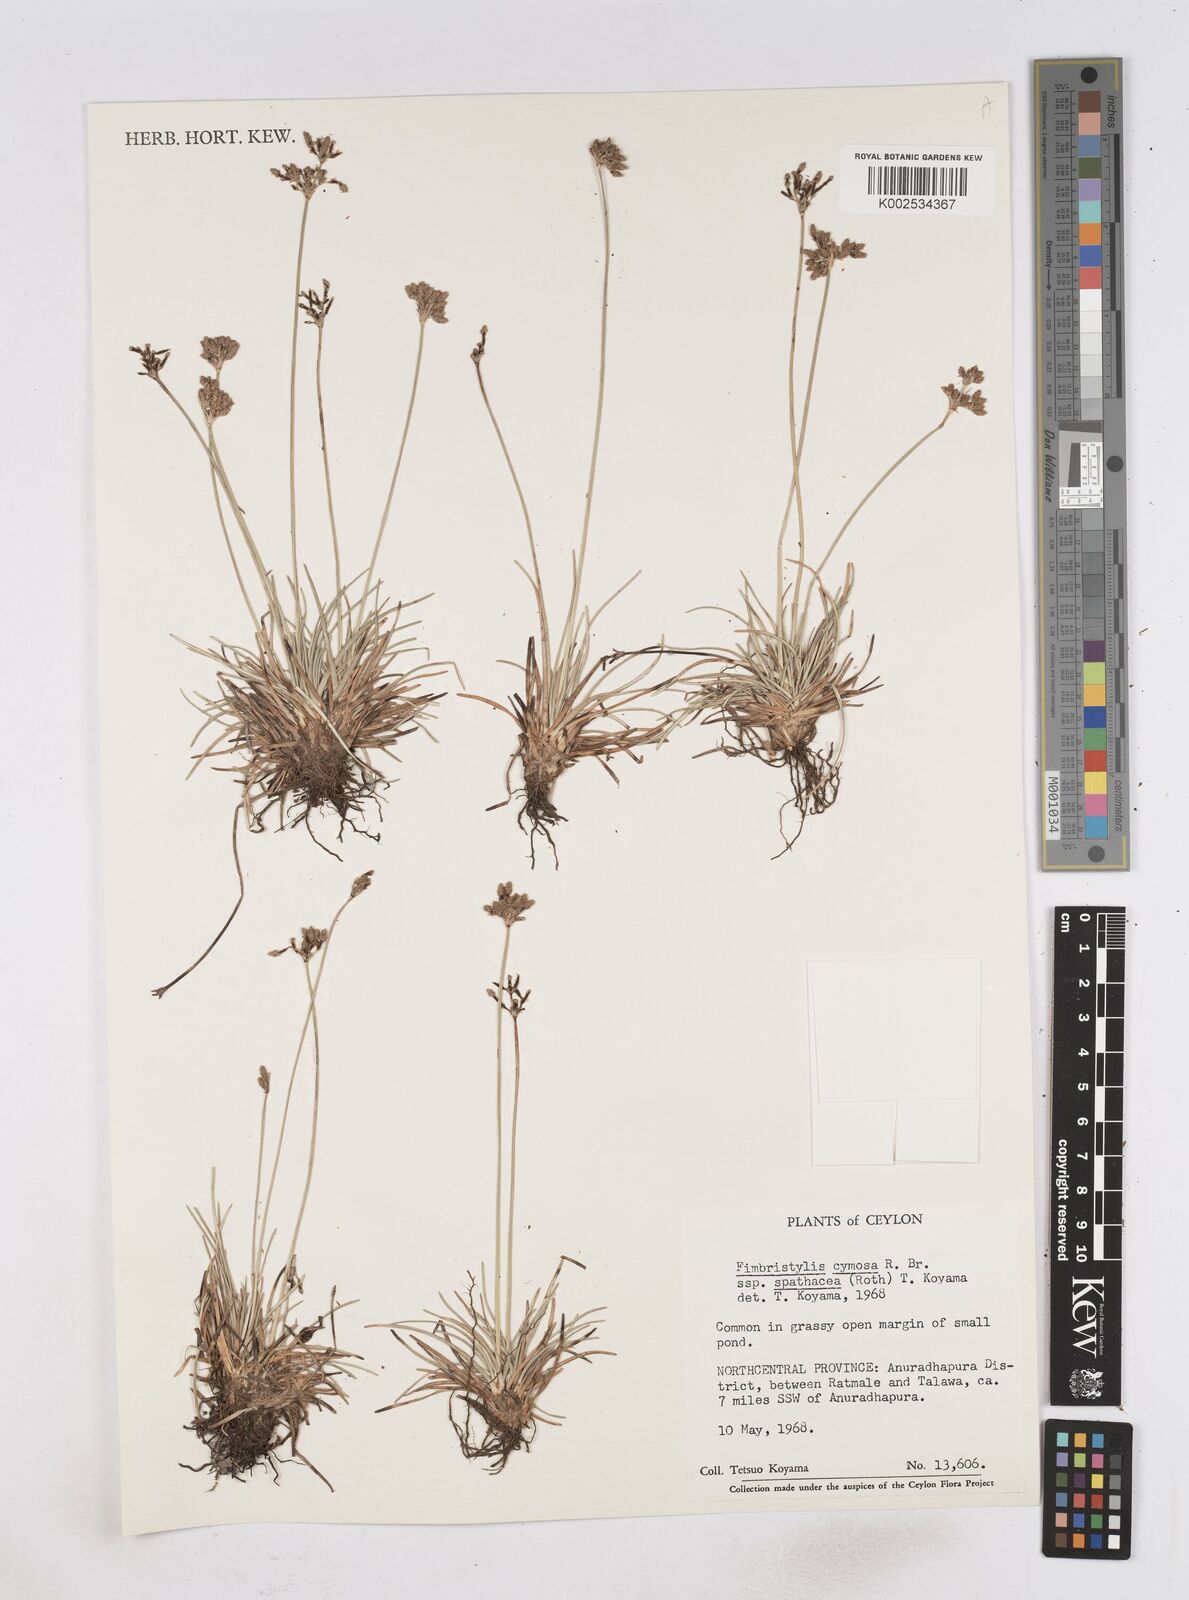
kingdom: Plantae
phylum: Tracheophyta
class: Liliopsida
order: Poales
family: Cyperaceae
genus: Fimbristylis
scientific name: Fimbristylis cymosa
